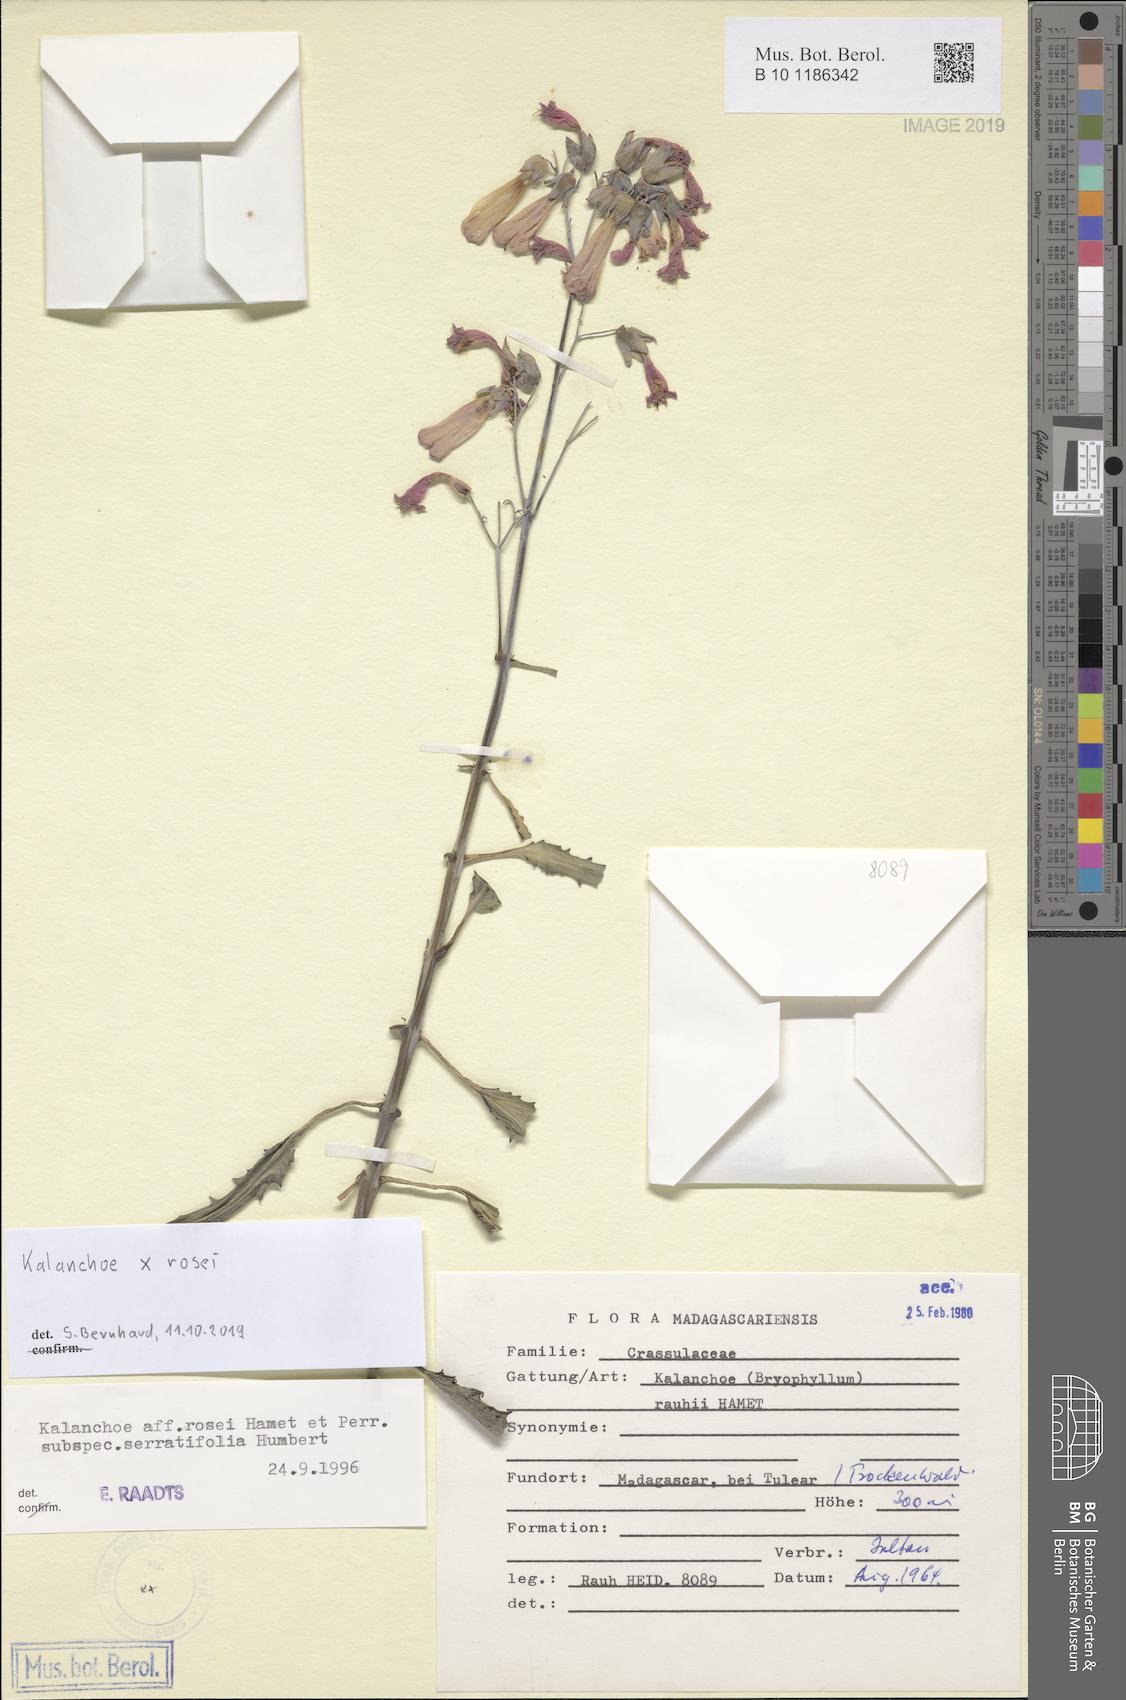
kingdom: Plantae
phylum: Tracheophyta
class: Magnoliopsida
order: Saxifragales
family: Crassulaceae
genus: Kalanchoe
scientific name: Kalanchoe rosei
